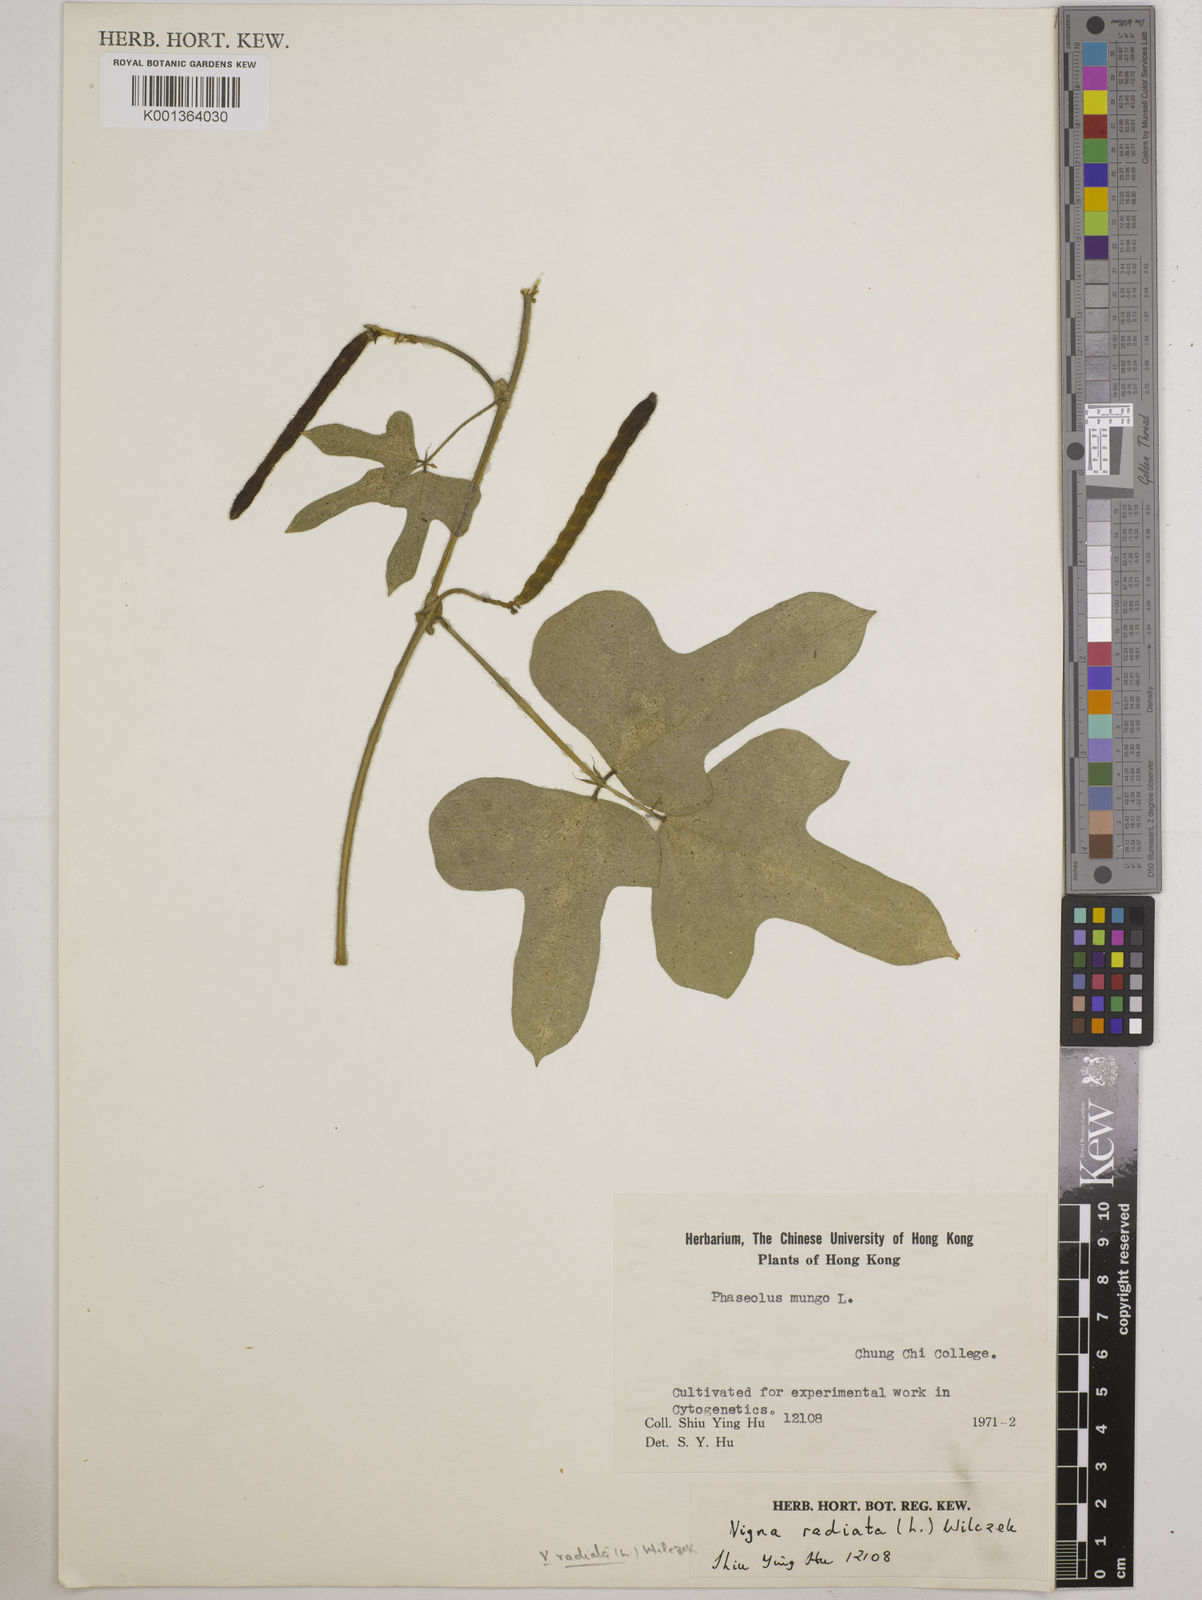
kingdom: Plantae
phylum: Tracheophyta
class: Magnoliopsida
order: Fabales
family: Fabaceae
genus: Vigna
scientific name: Vigna radiata
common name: Mung-bean
